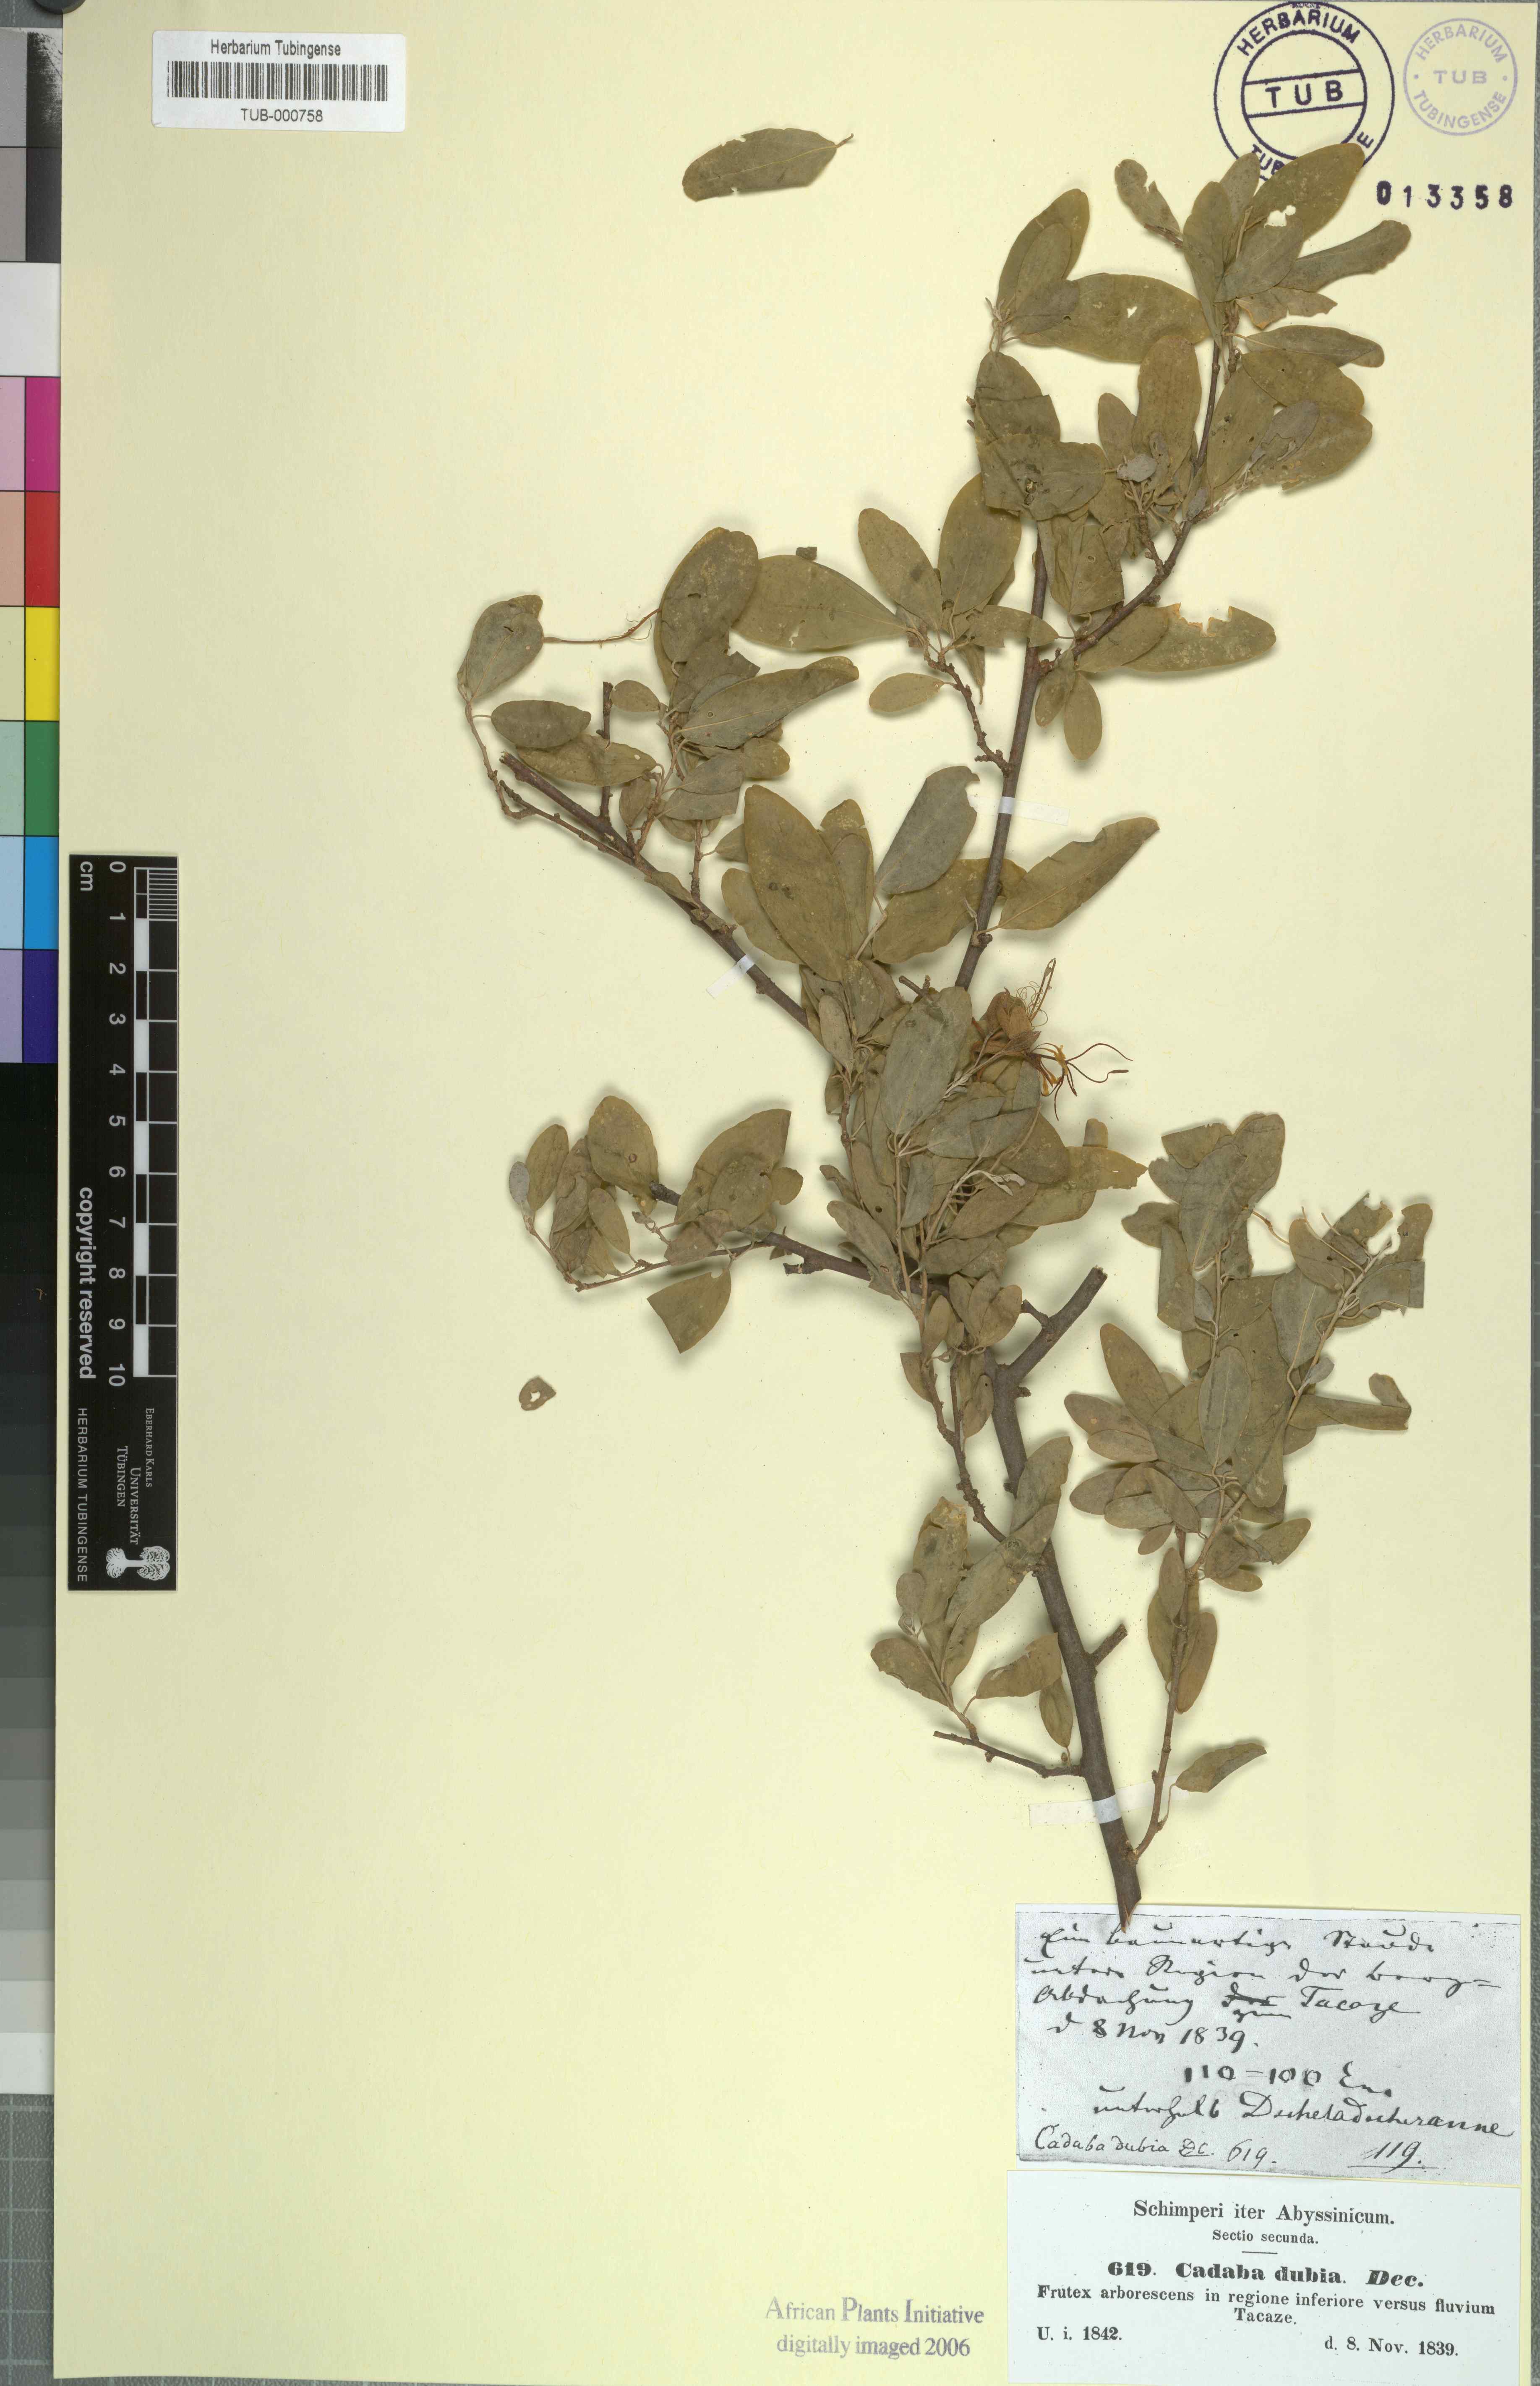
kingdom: Plantae
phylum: Tracheophyta
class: Magnoliopsida
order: Brassicales
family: Capparaceae
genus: Cadaba
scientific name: Cadaba farinosa
